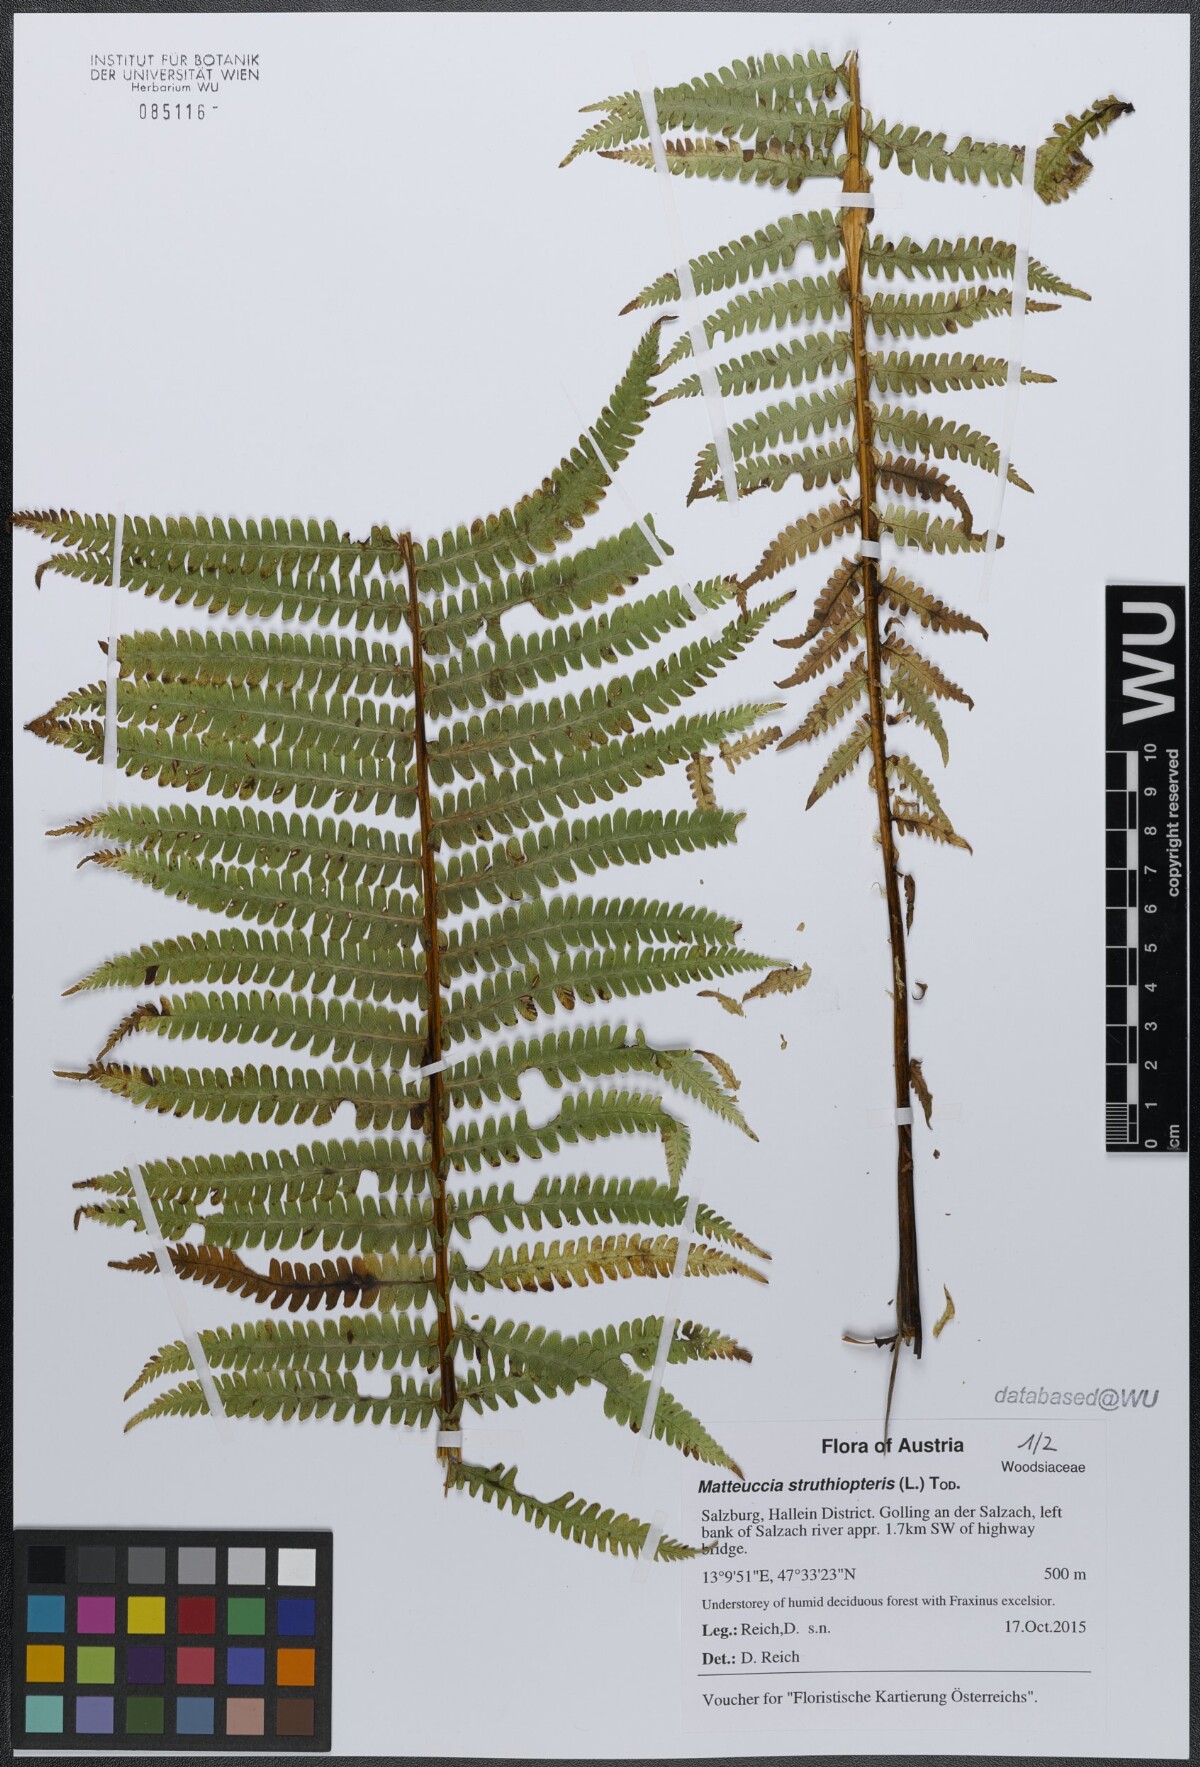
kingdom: Plantae
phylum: Tracheophyta
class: Polypodiopsida
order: Polypodiales
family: Onocleaceae
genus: Matteuccia
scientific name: Matteuccia struthiopteris
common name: Ostrich fern
